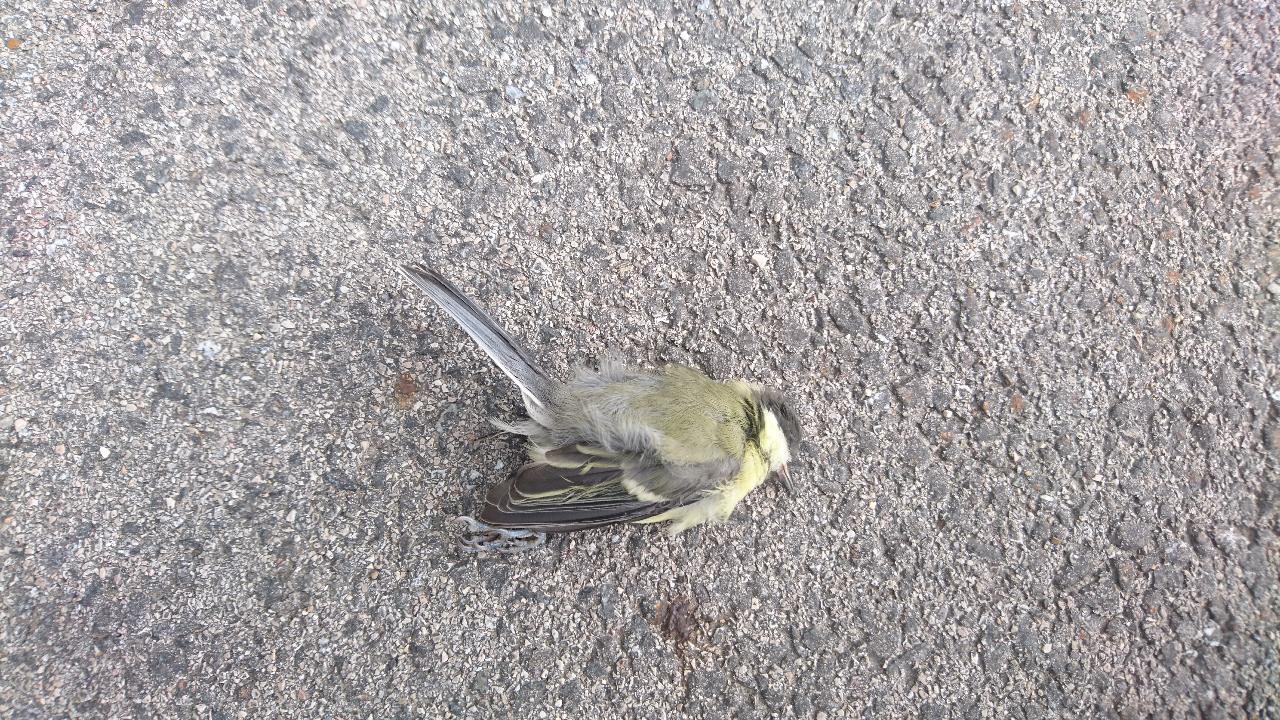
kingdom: Animalia
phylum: Chordata
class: Aves
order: Passeriformes
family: Paridae
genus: Parus
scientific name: Parus major
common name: Great tit
